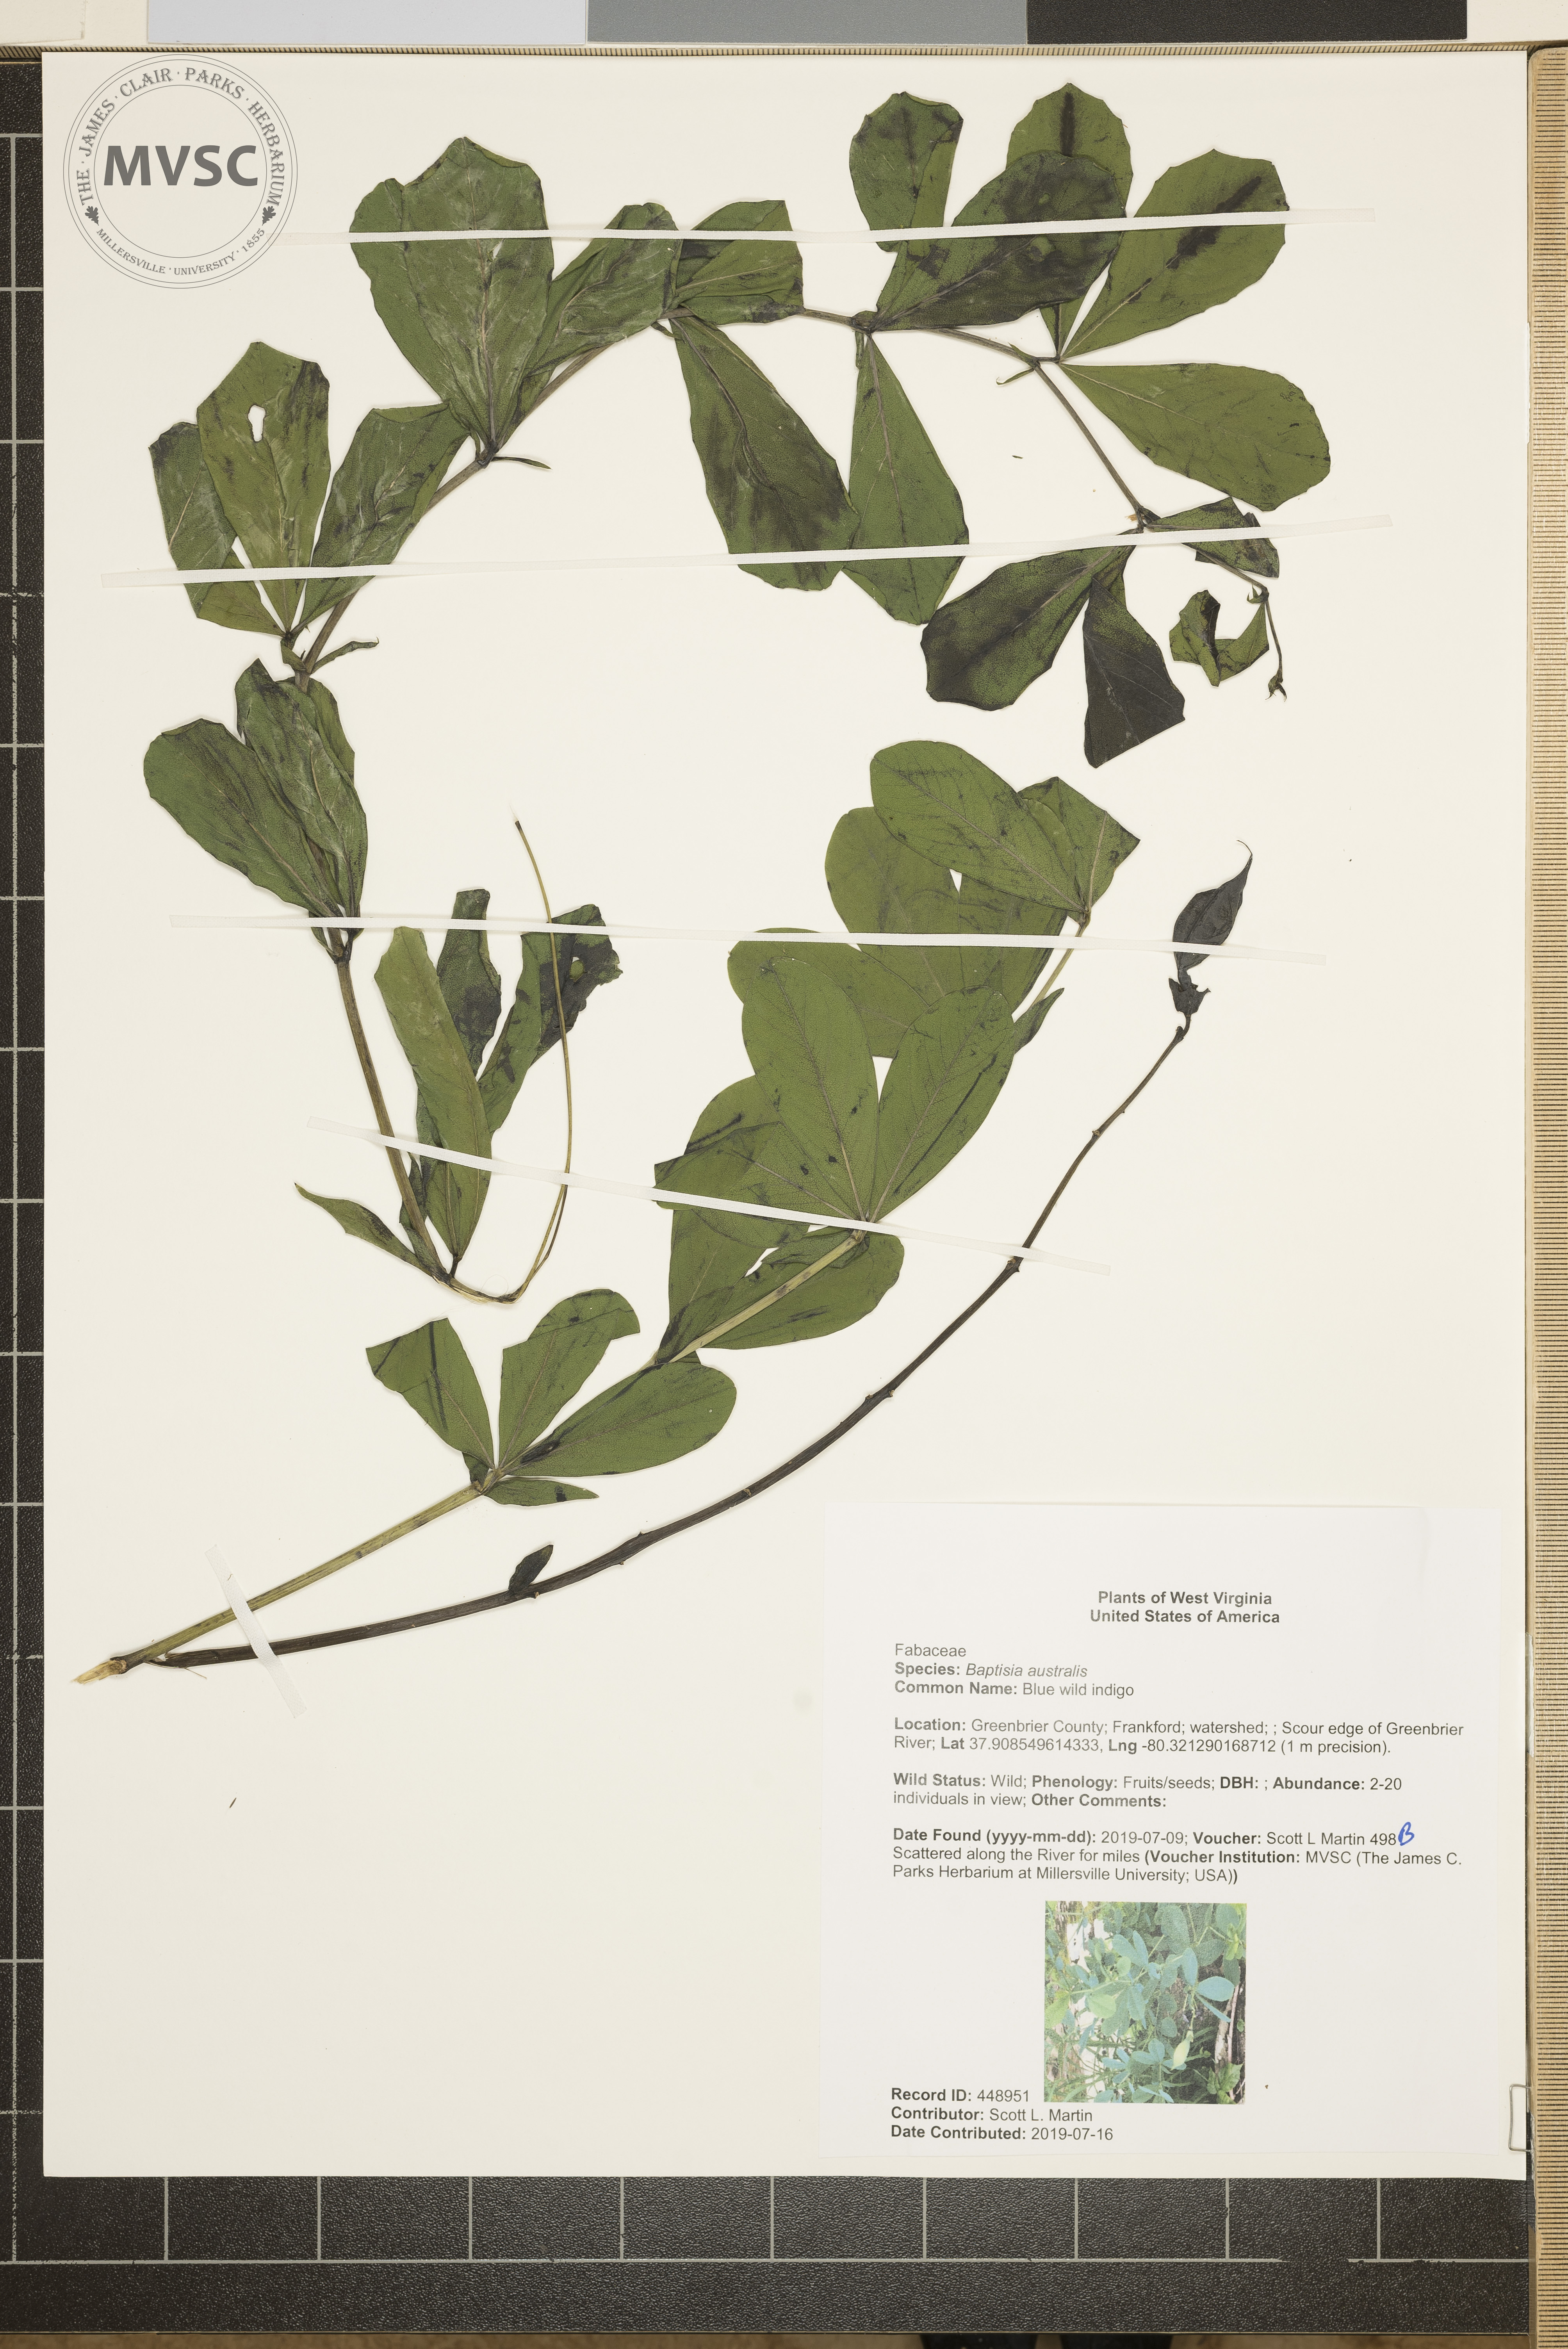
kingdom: Plantae
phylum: Tracheophyta
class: Magnoliopsida
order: Fabales
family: Fabaceae
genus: Baptisia
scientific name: Baptisia australis
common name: Blue wild indigo
